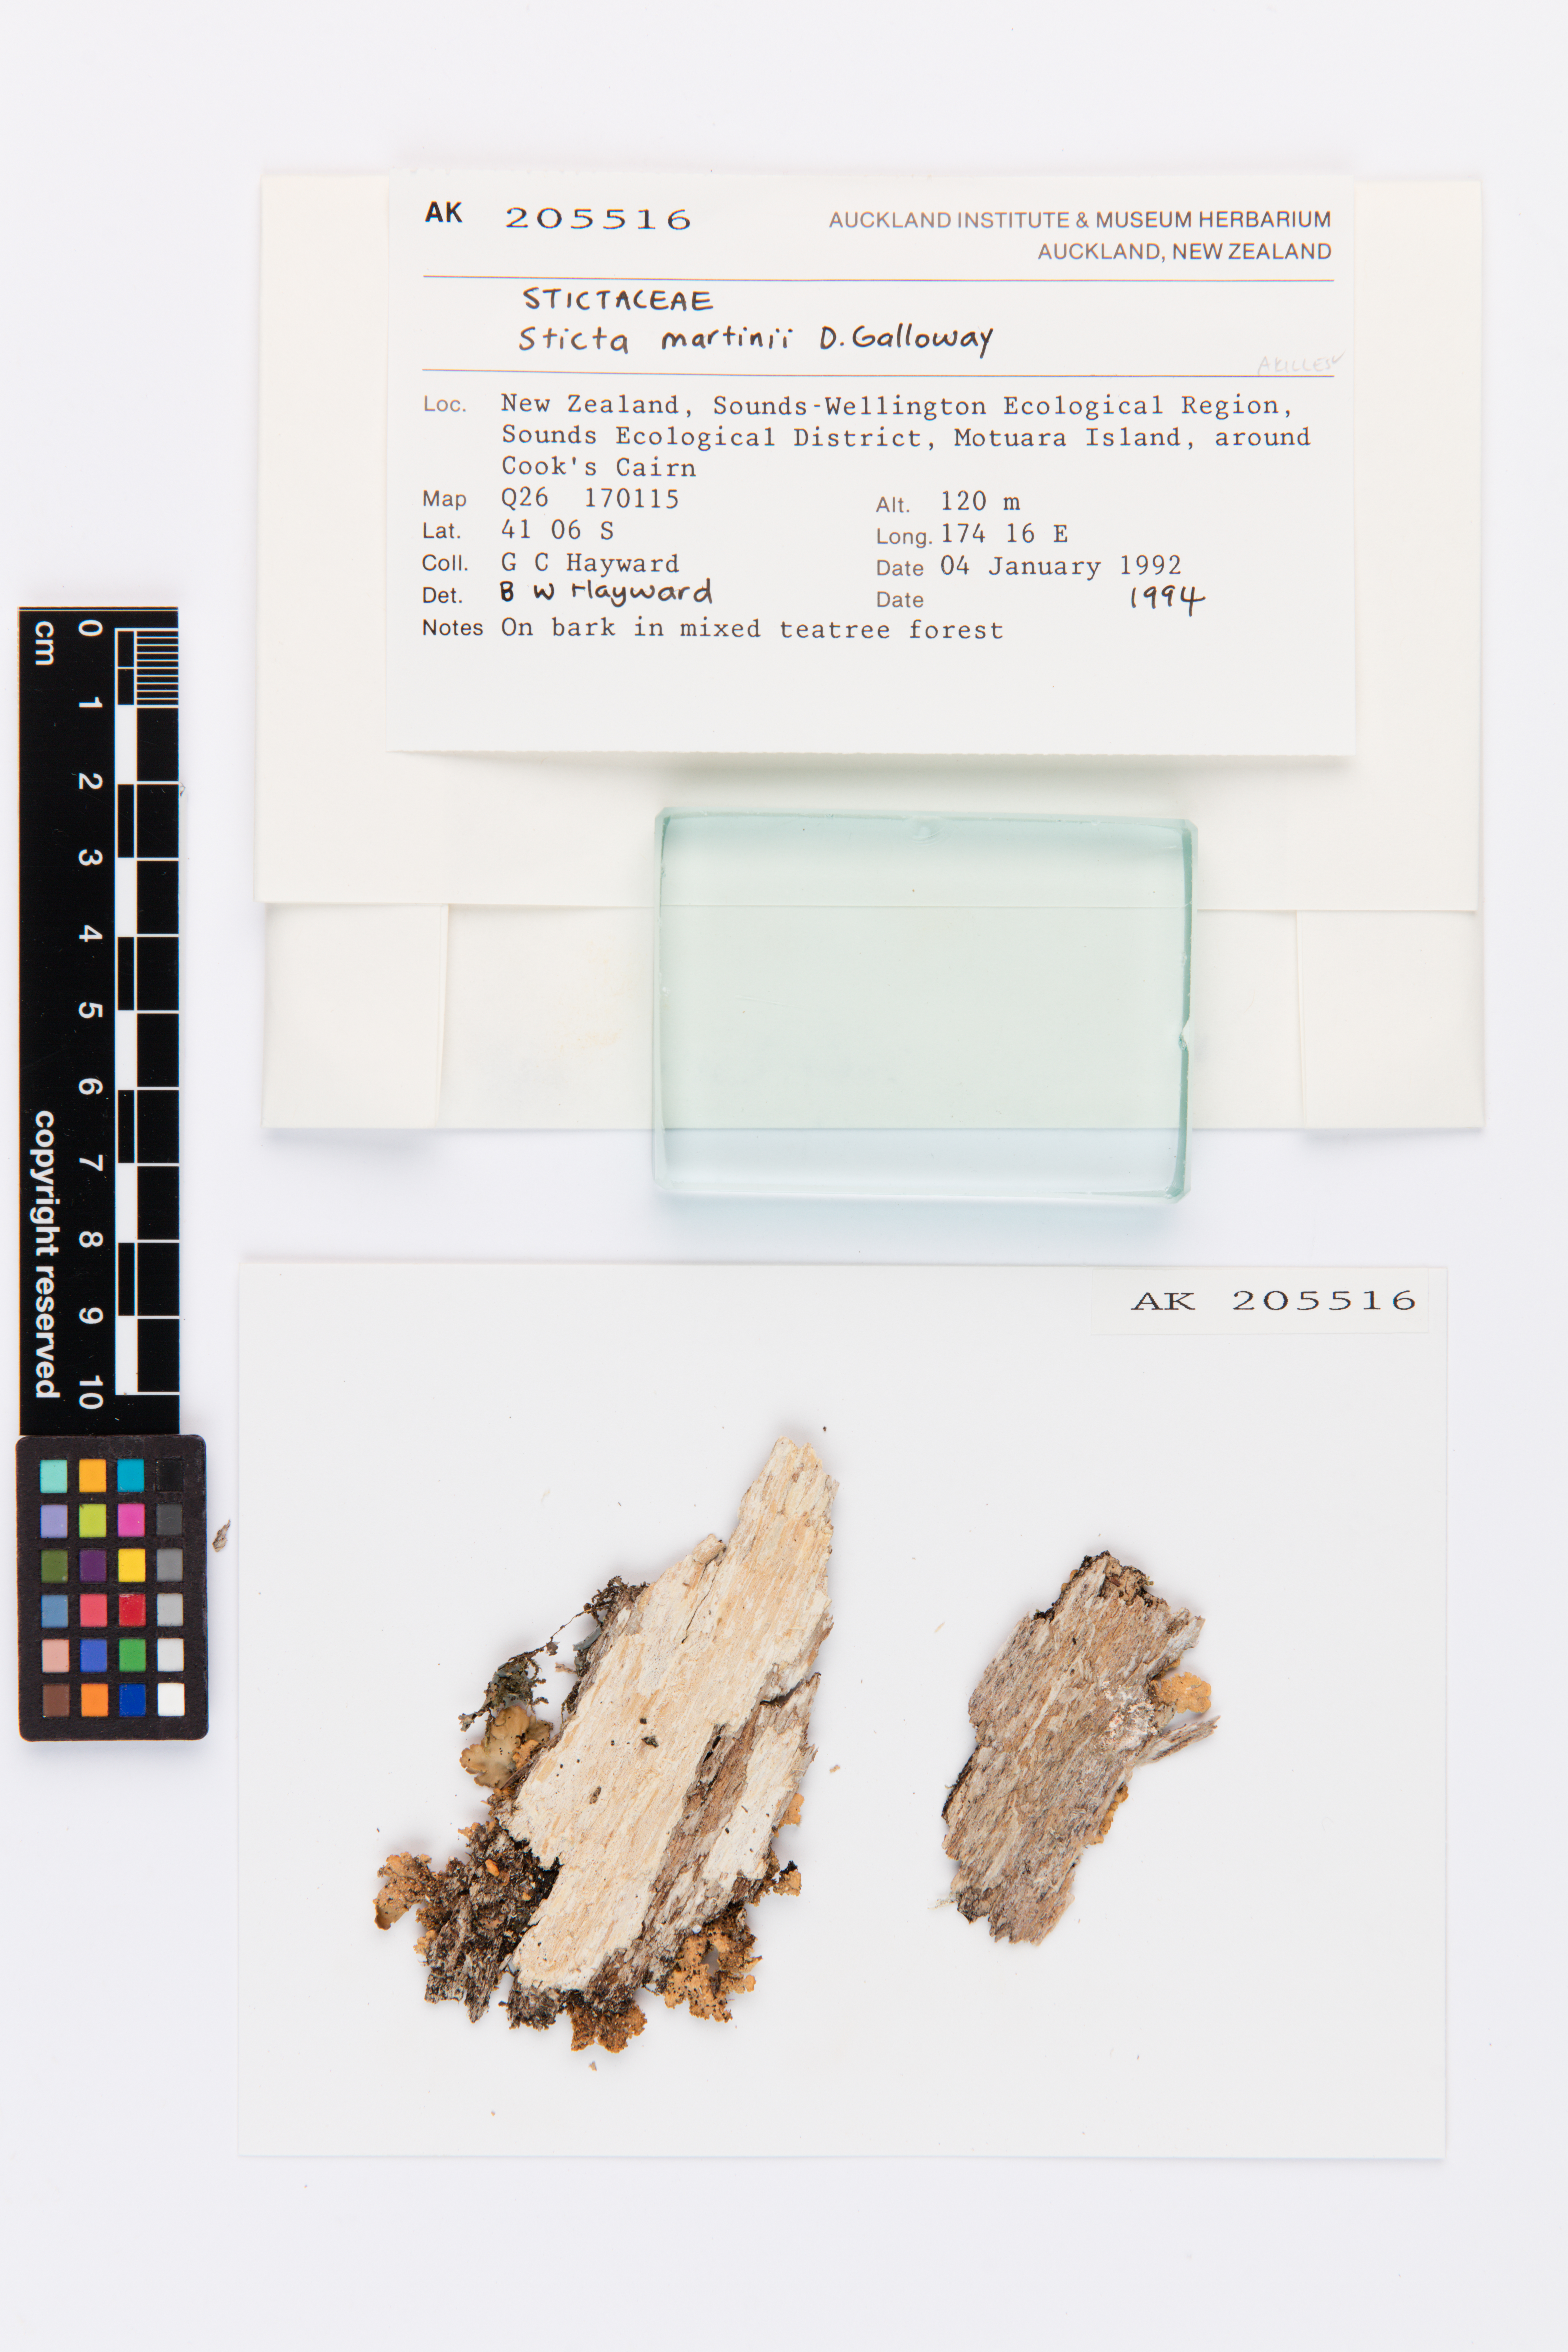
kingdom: Fungi
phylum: Ascomycota
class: Lecanoromycetes
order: Peltigerales
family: Lobariaceae
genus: Sticta
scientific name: Sticta martinii
